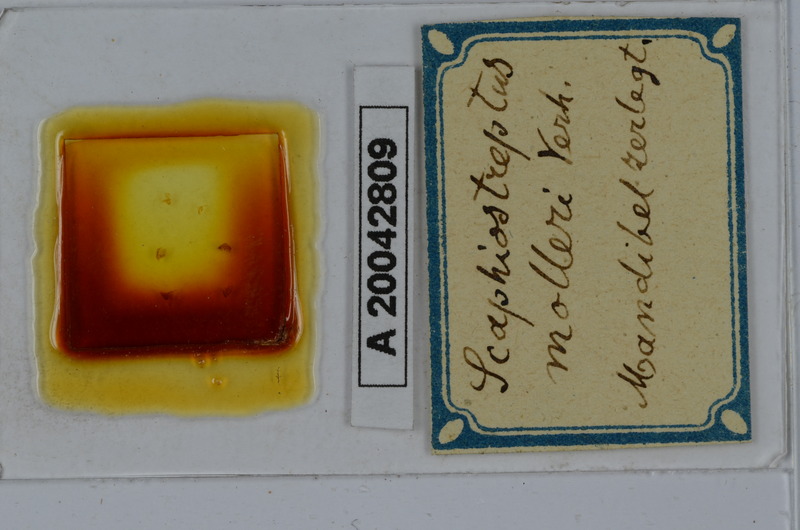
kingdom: Animalia
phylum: Arthropoda
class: Diplopoda
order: Spirostreptida
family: Spirostreptidae
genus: Globanus
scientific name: Globanus integer
